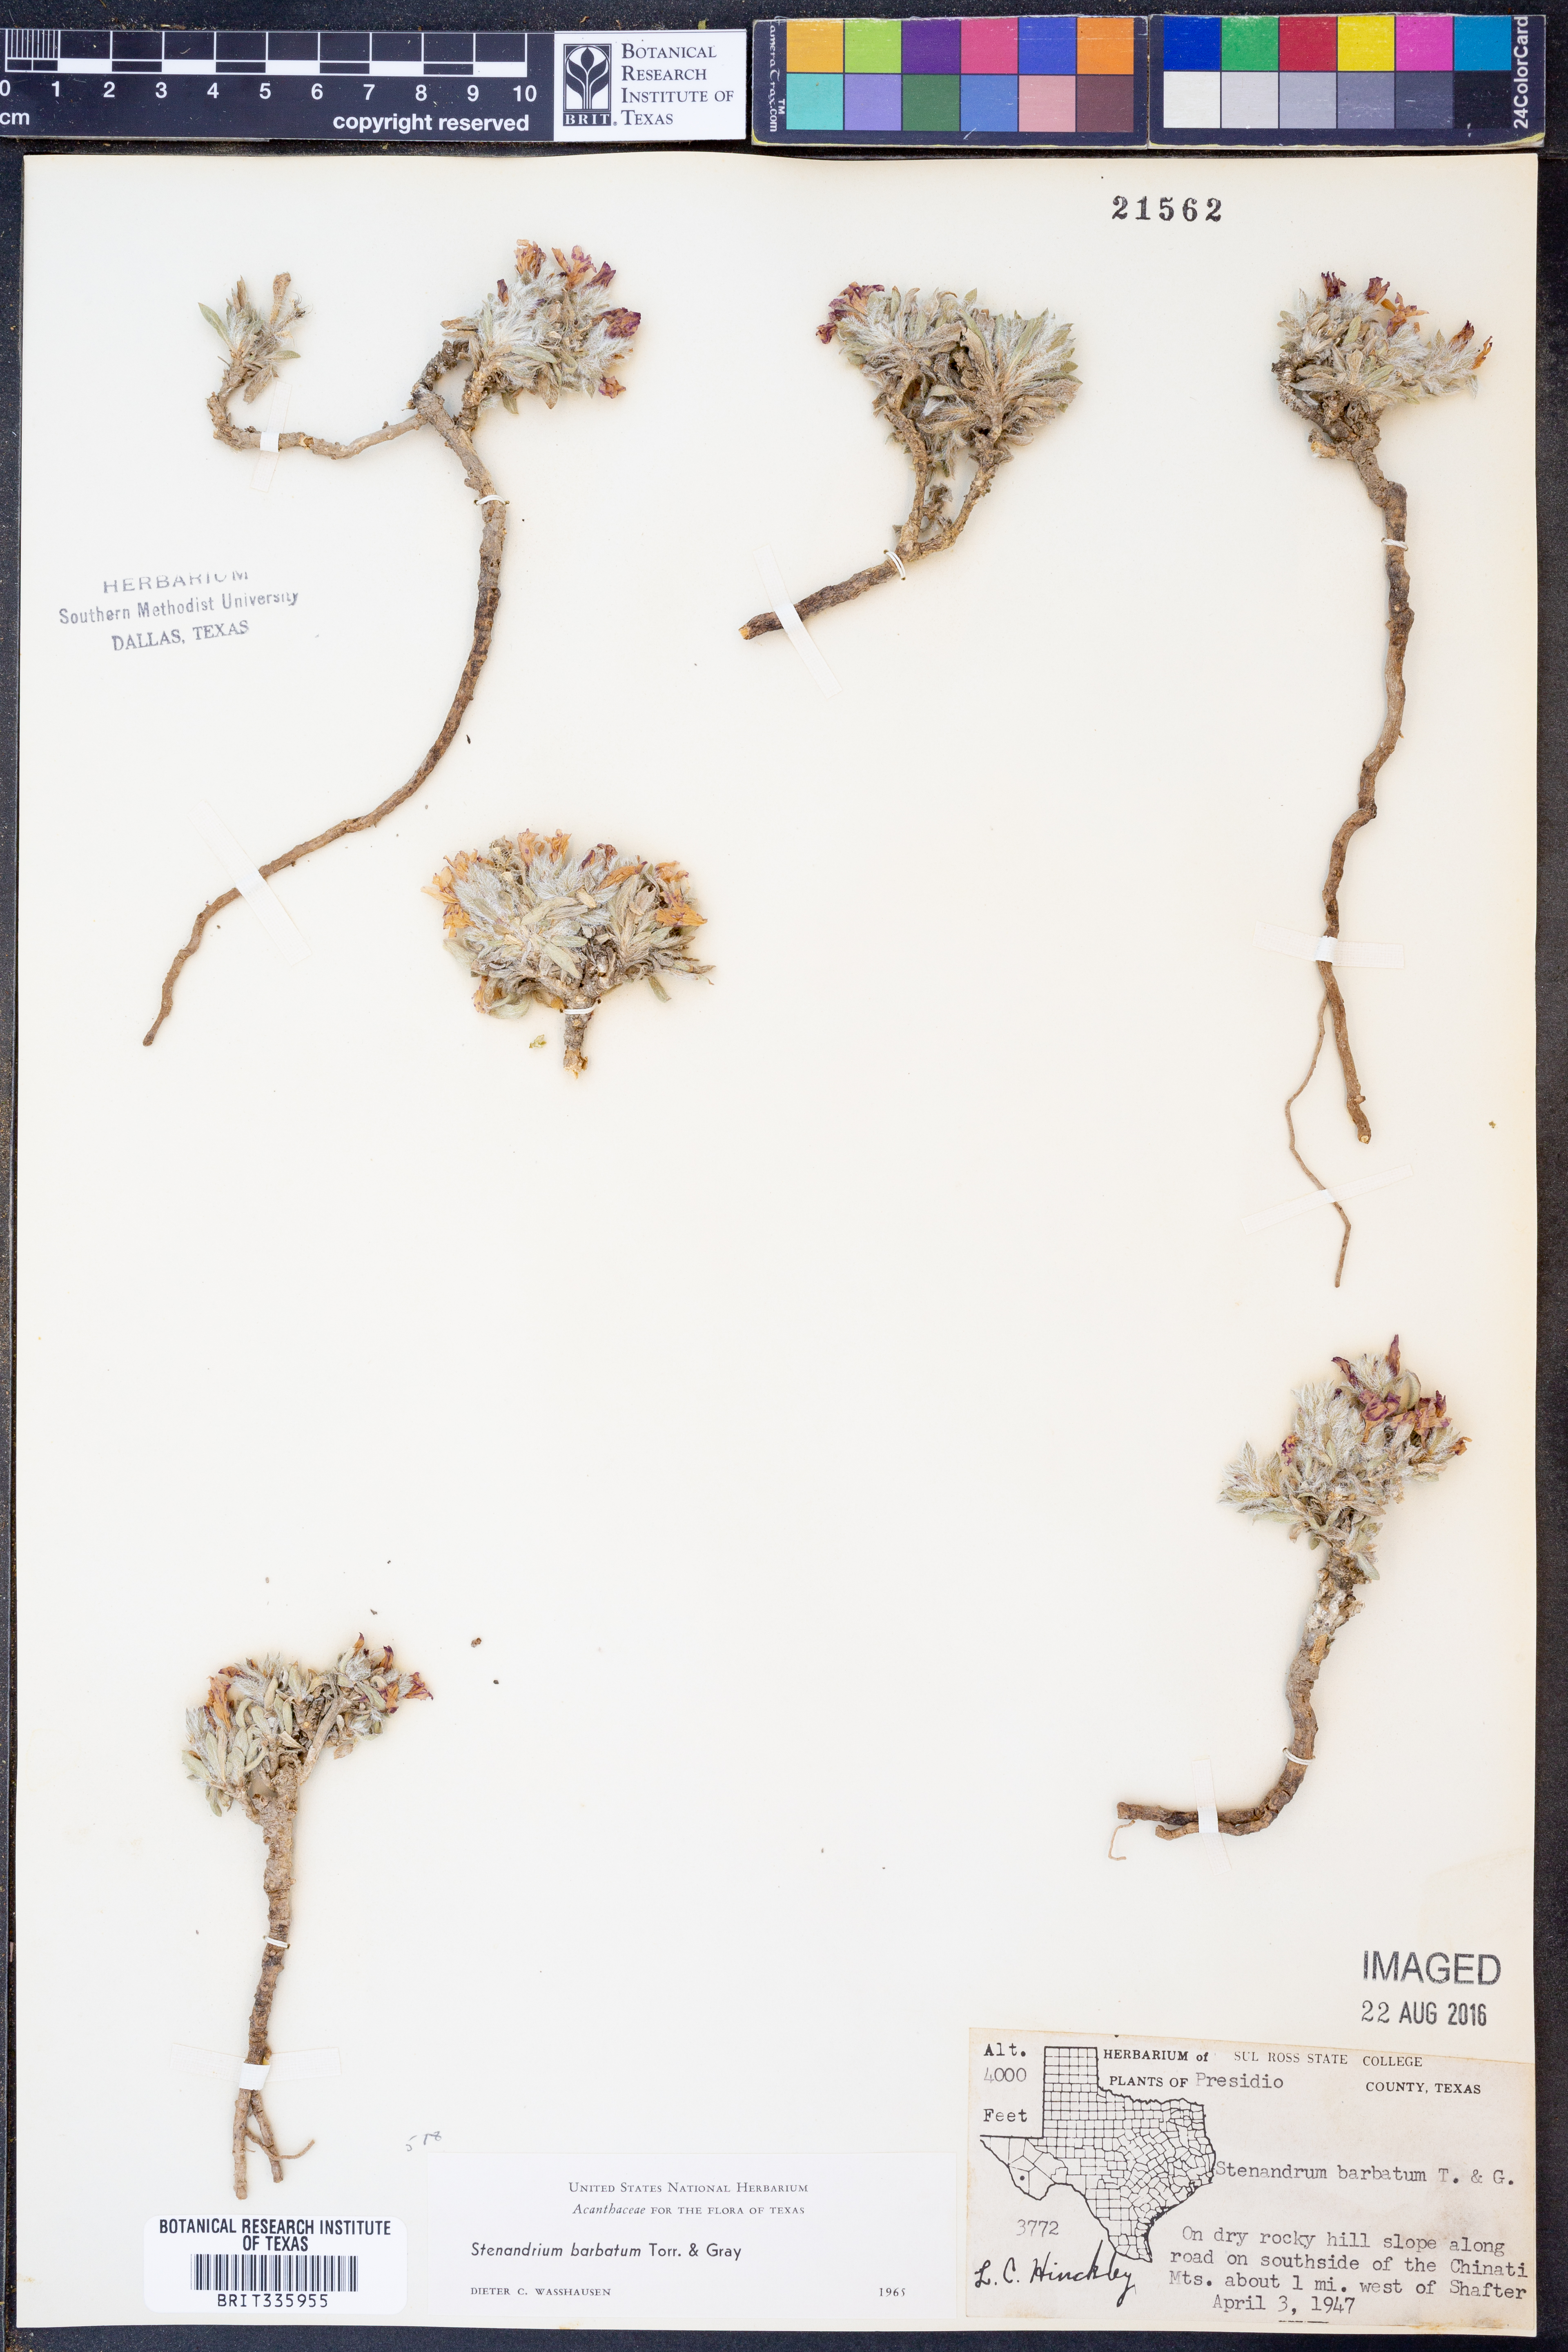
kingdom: Plantae
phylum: Tracheophyta
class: Magnoliopsida
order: Lamiales
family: Acanthaceae
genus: Stenandrium
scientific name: Stenandrium barbatum
